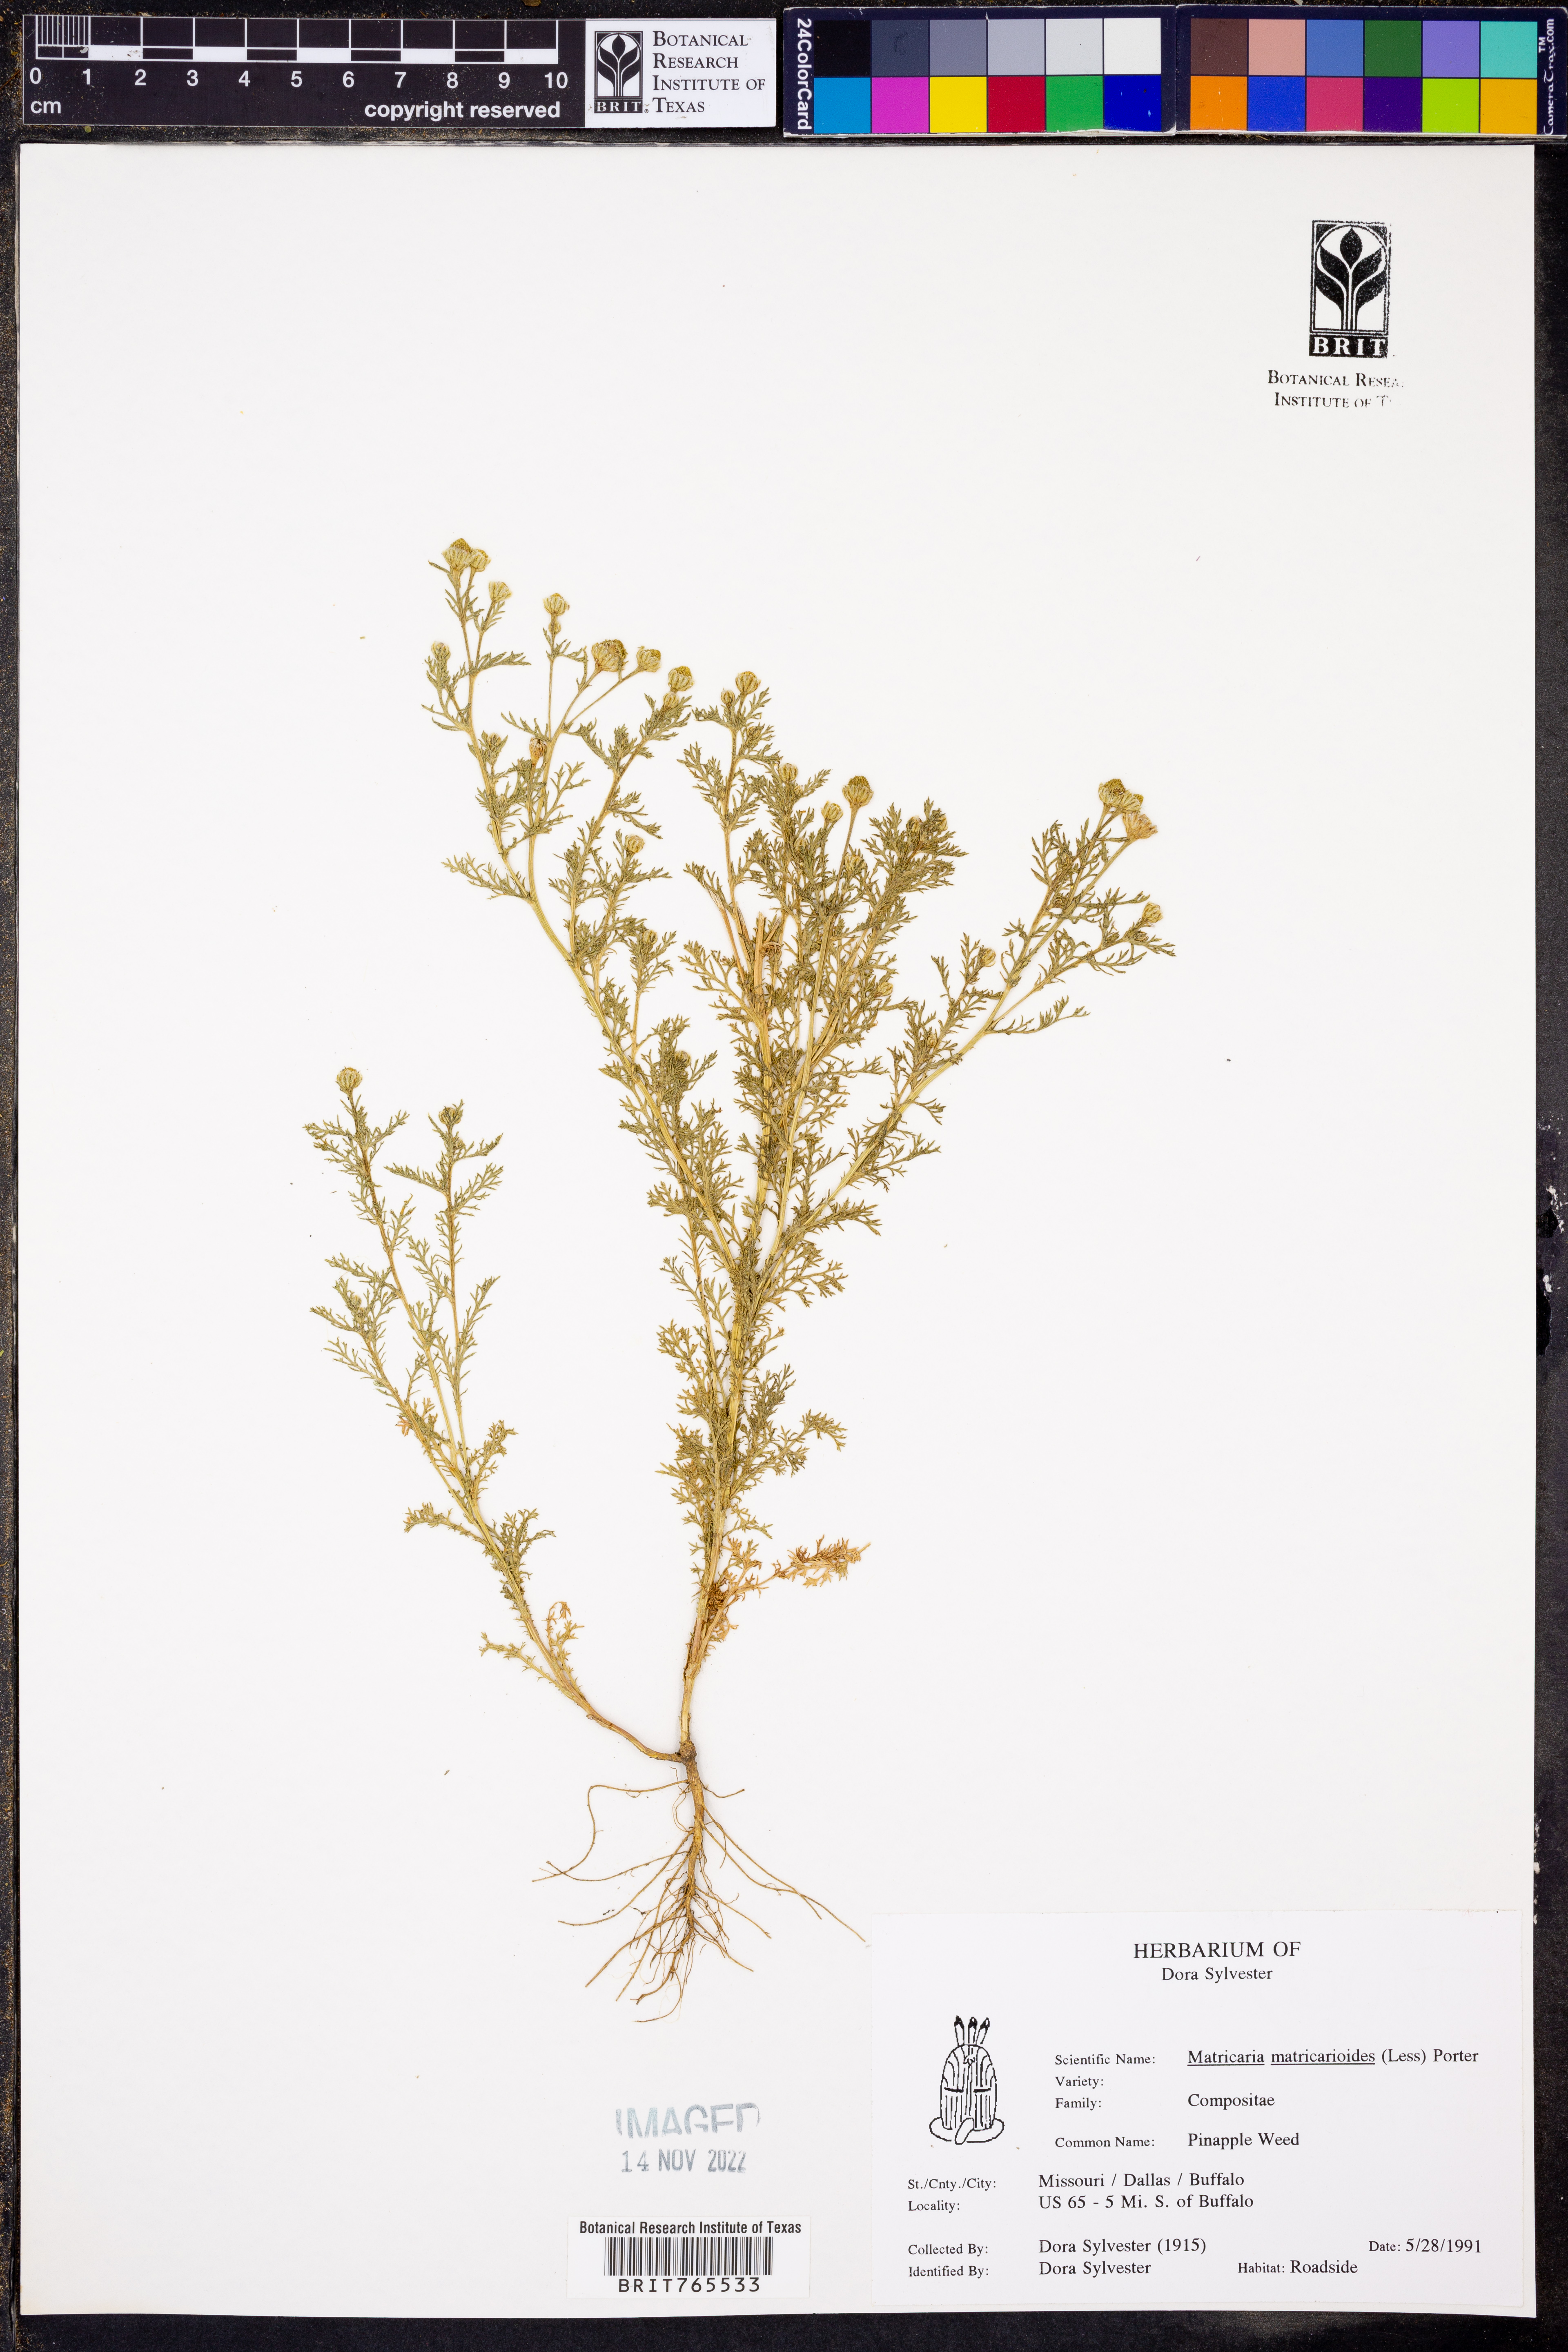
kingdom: Plantae
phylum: Tracheophyta
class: Magnoliopsida
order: Asterales
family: Asteraceae
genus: Matricaria
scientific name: Matricaria discoidea
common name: Disc mayweed
